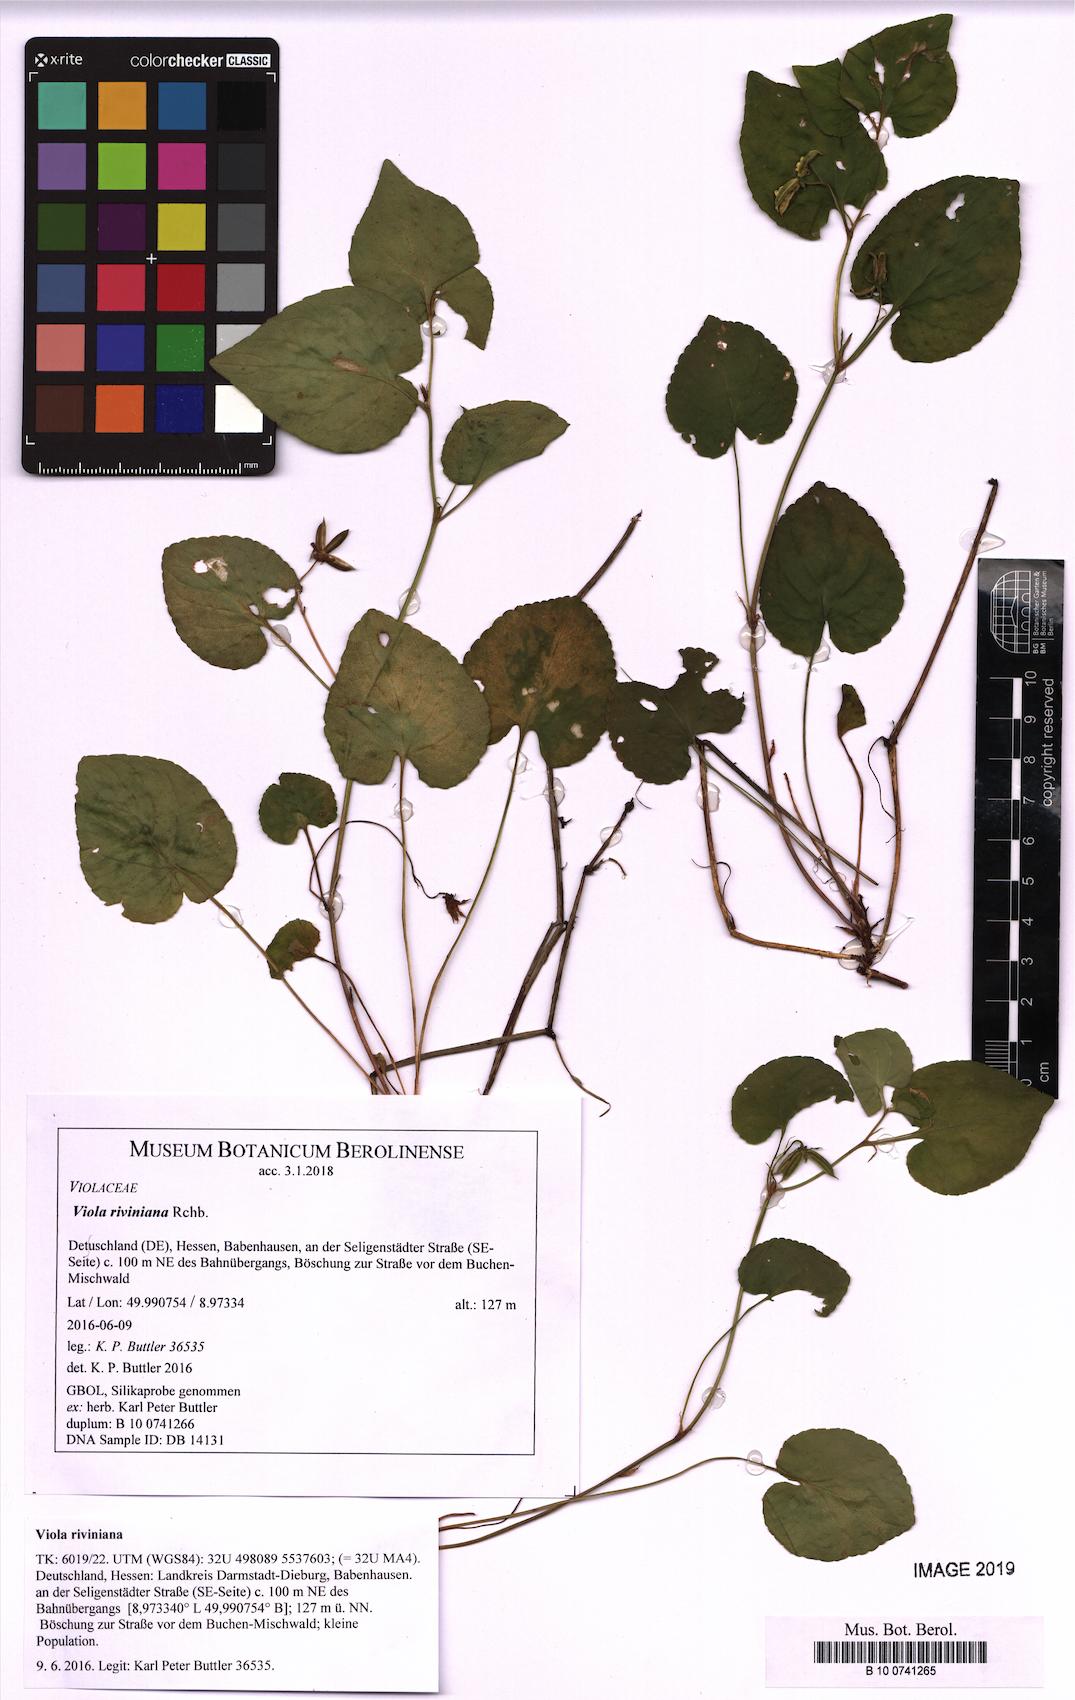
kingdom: Plantae
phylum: Tracheophyta
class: Magnoliopsida
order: Malpighiales
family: Violaceae
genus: Viola
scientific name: Viola riviniana
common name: Common dog-violet
